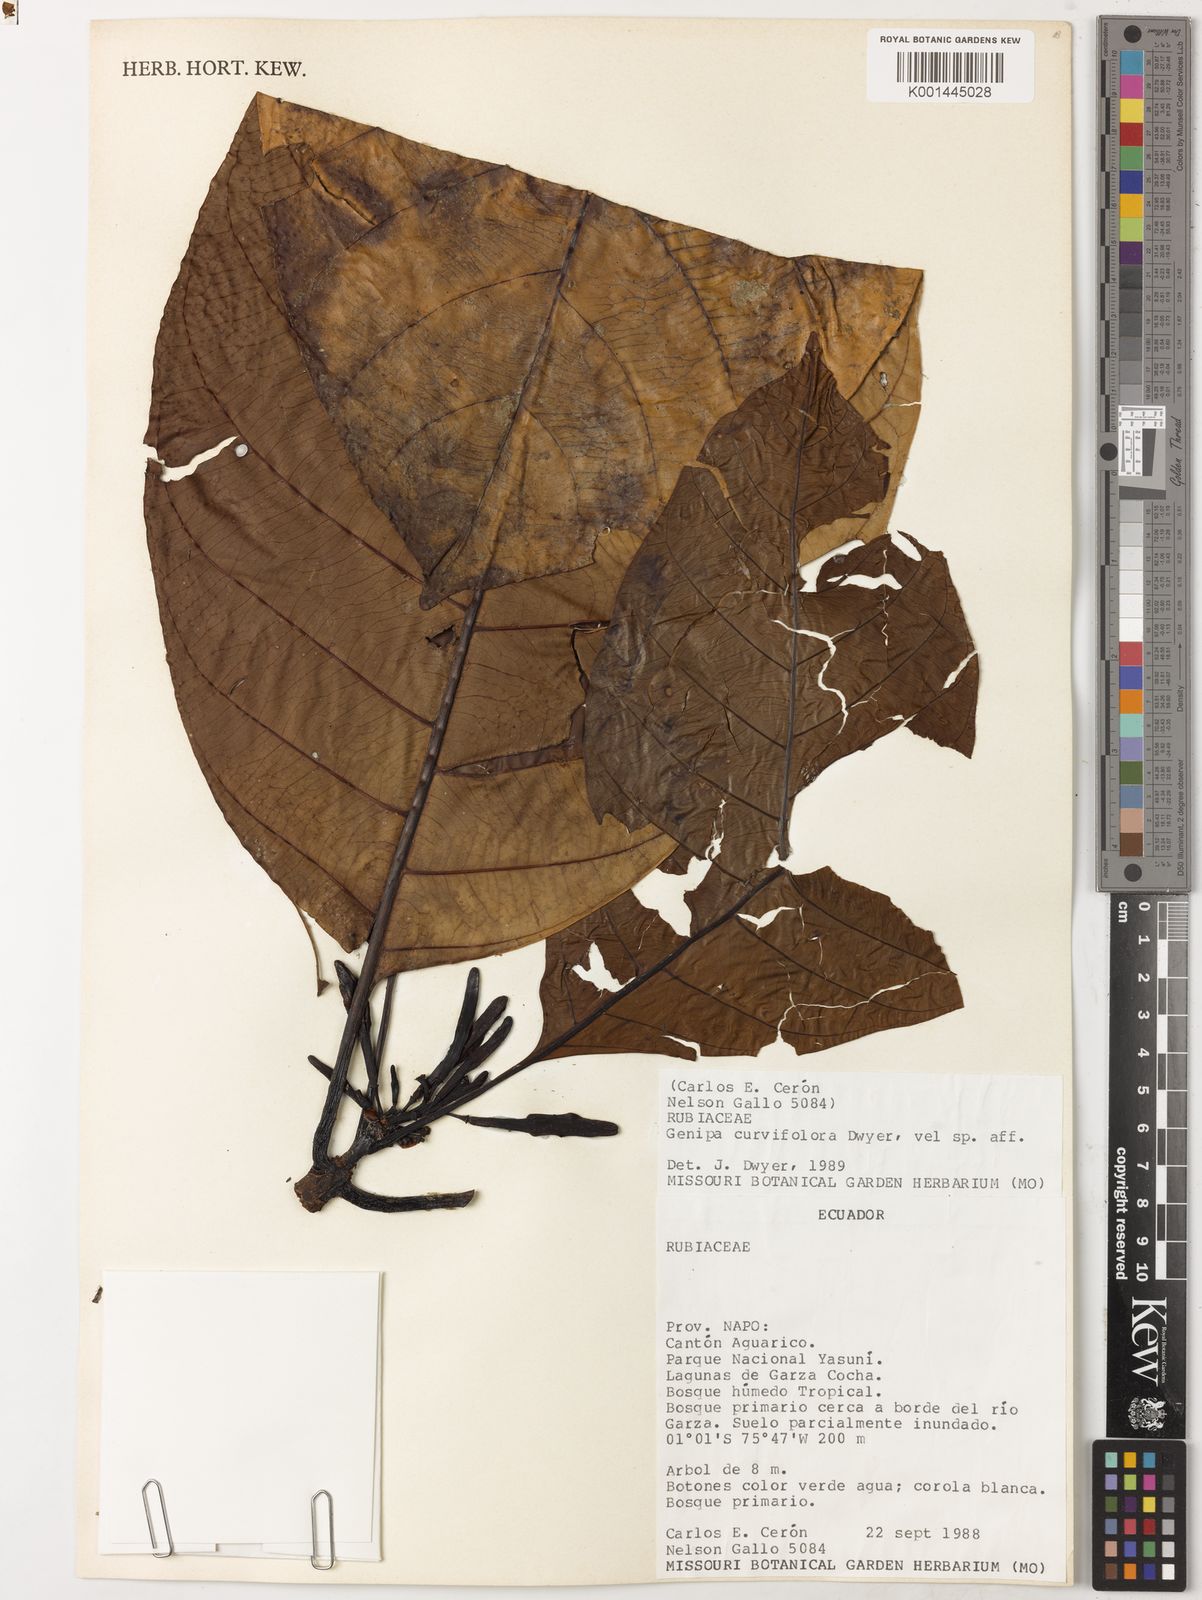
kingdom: Plantae
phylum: Tracheophyta
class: Magnoliopsida
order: Gentianales
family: Rubiaceae
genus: Agouticarpa
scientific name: Agouticarpa curviflora
